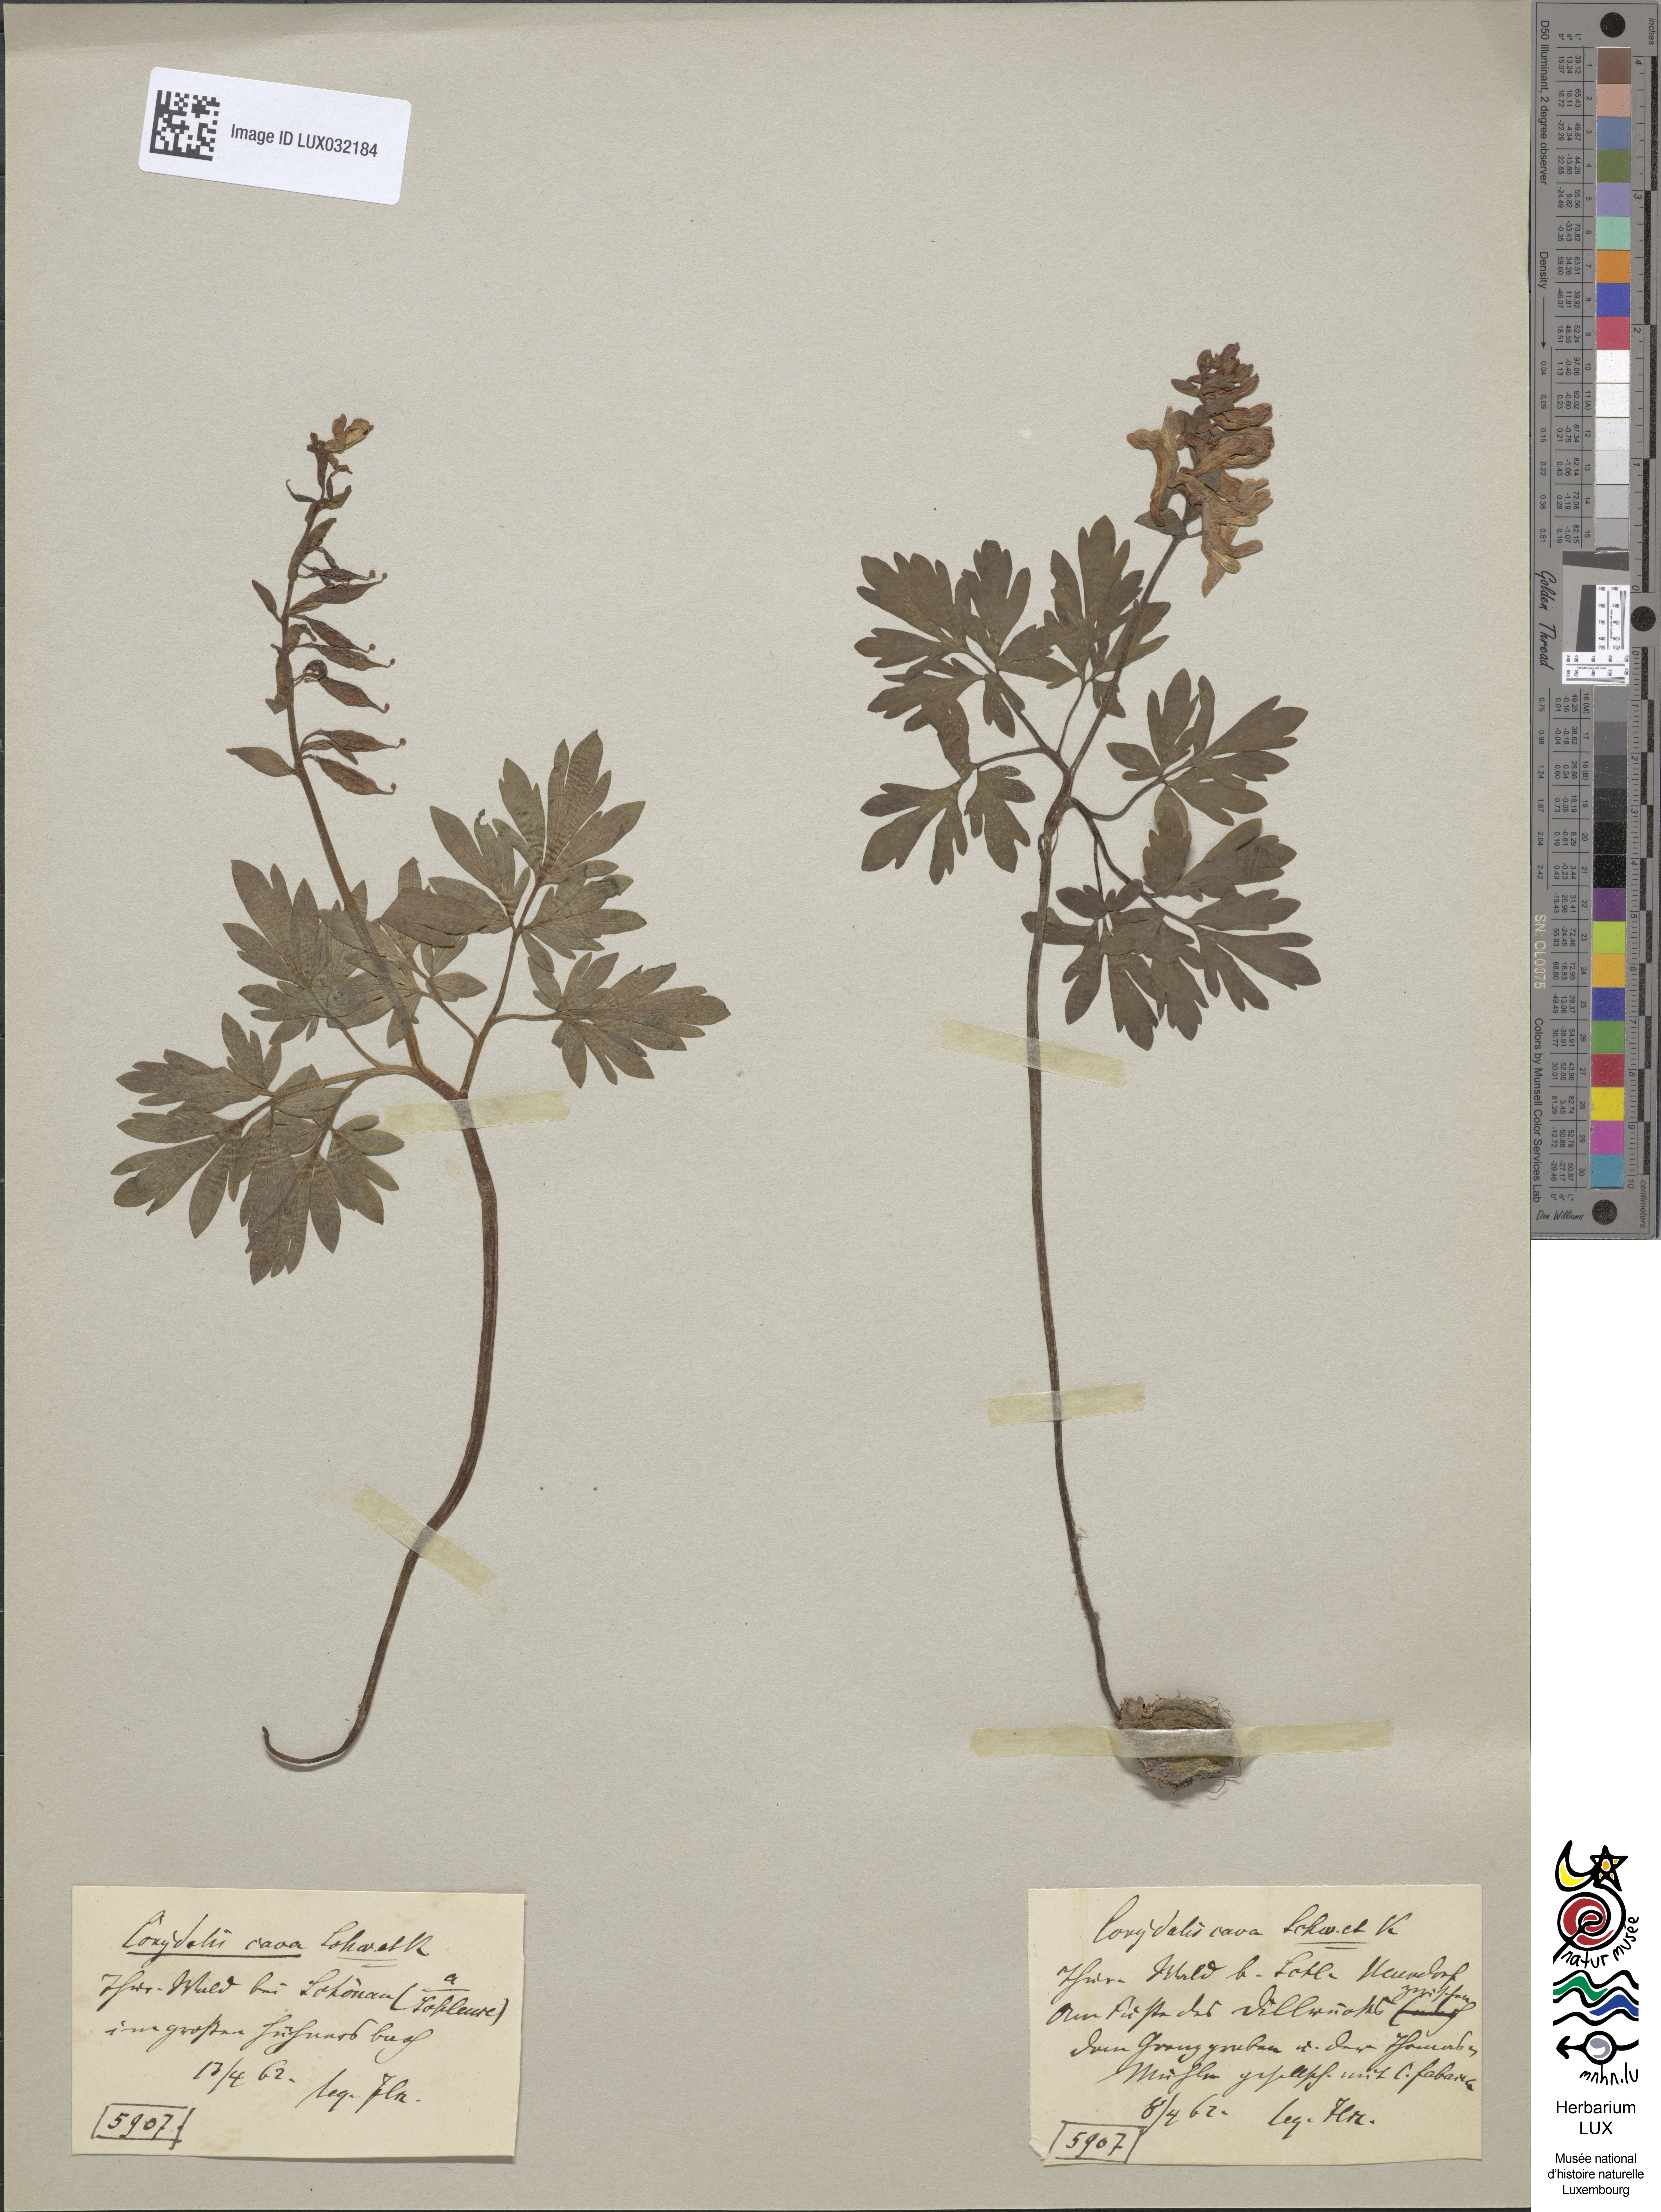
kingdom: Plantae
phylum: Tracheophyta
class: Magnoliopsida
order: Ranunculales
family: Papaveraceae
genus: Corydalis
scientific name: Corydalis cava
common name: Hollowroot
